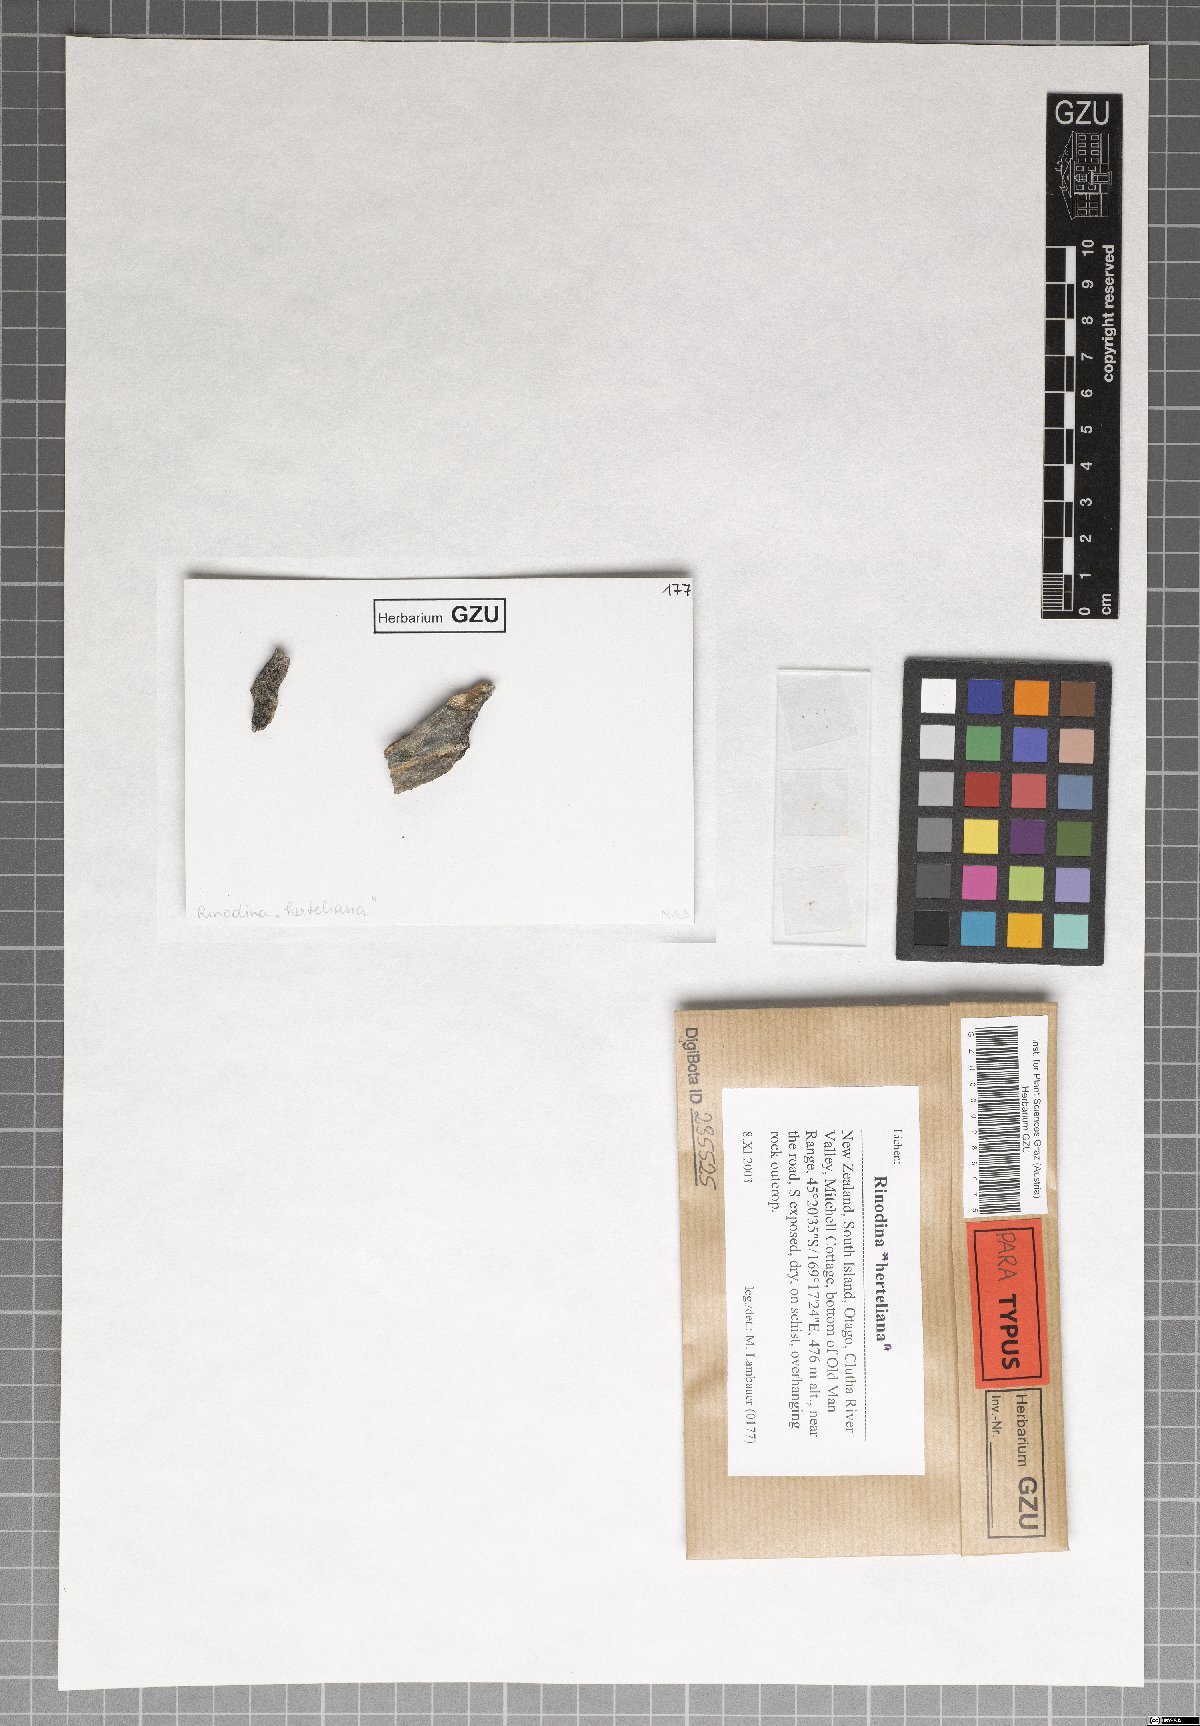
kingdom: Fungi
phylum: Ascomycota
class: Lecanoromycetes
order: Caliciales
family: Physciaceae
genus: Johnsheardia
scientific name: Johnsheardia herteliana
